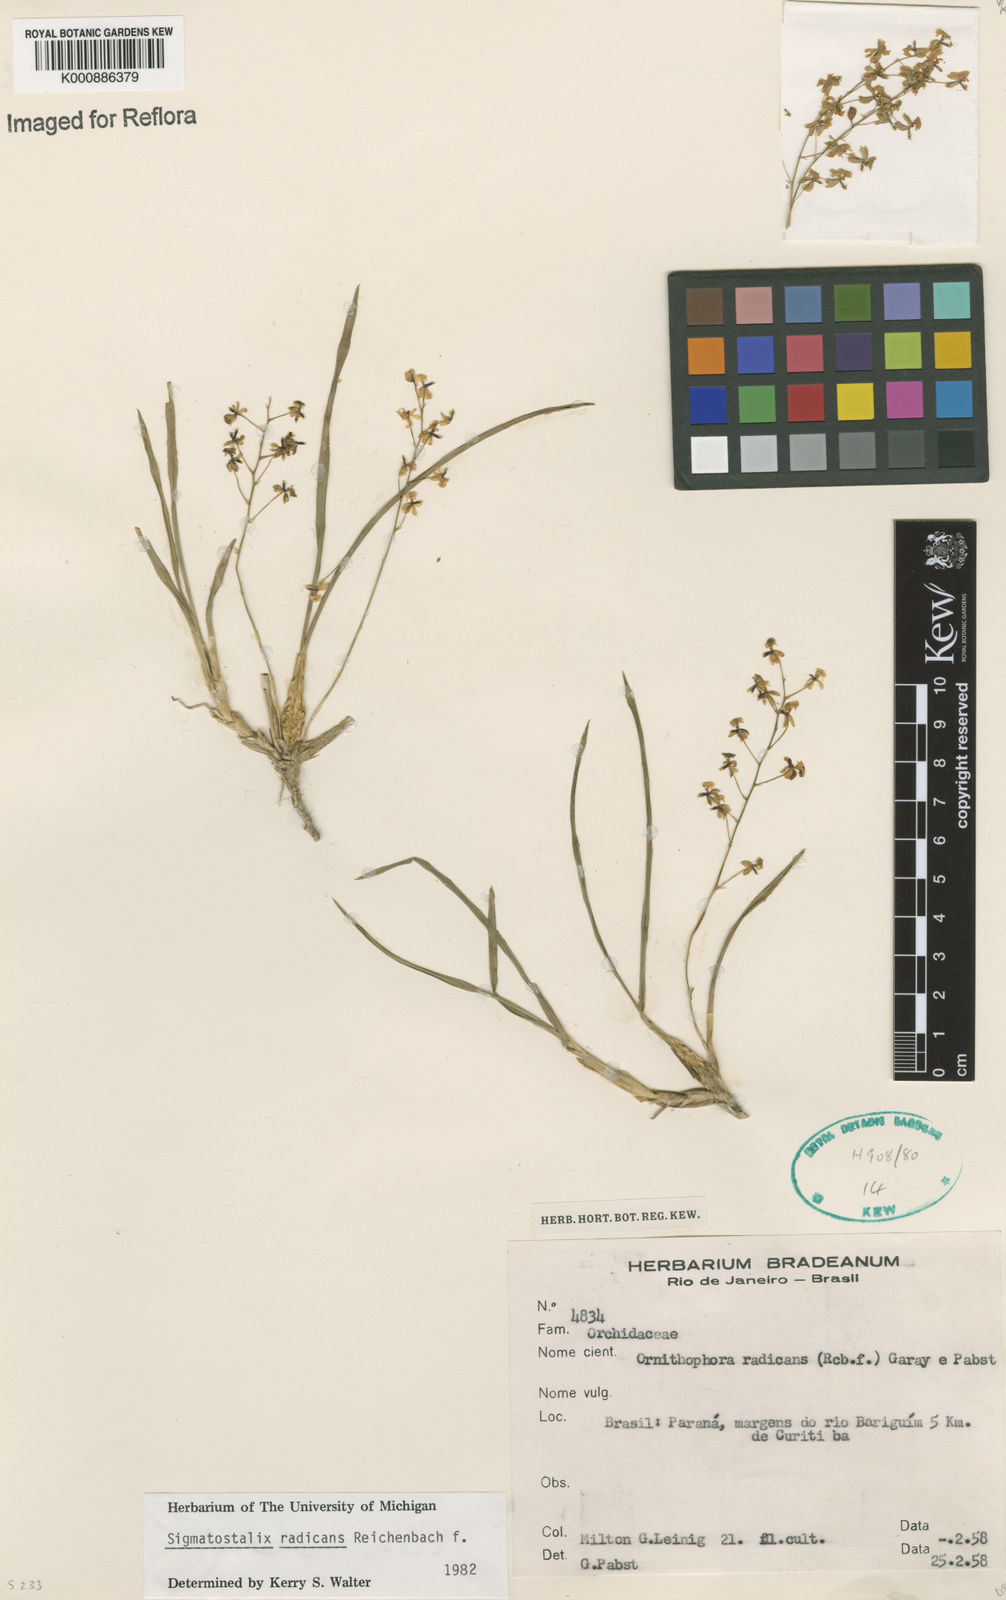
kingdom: Plantae
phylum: Tracheophyta
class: Liliopsida
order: Asparagales
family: Orchidaceae
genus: Gomesa
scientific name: Gomesa radicans
